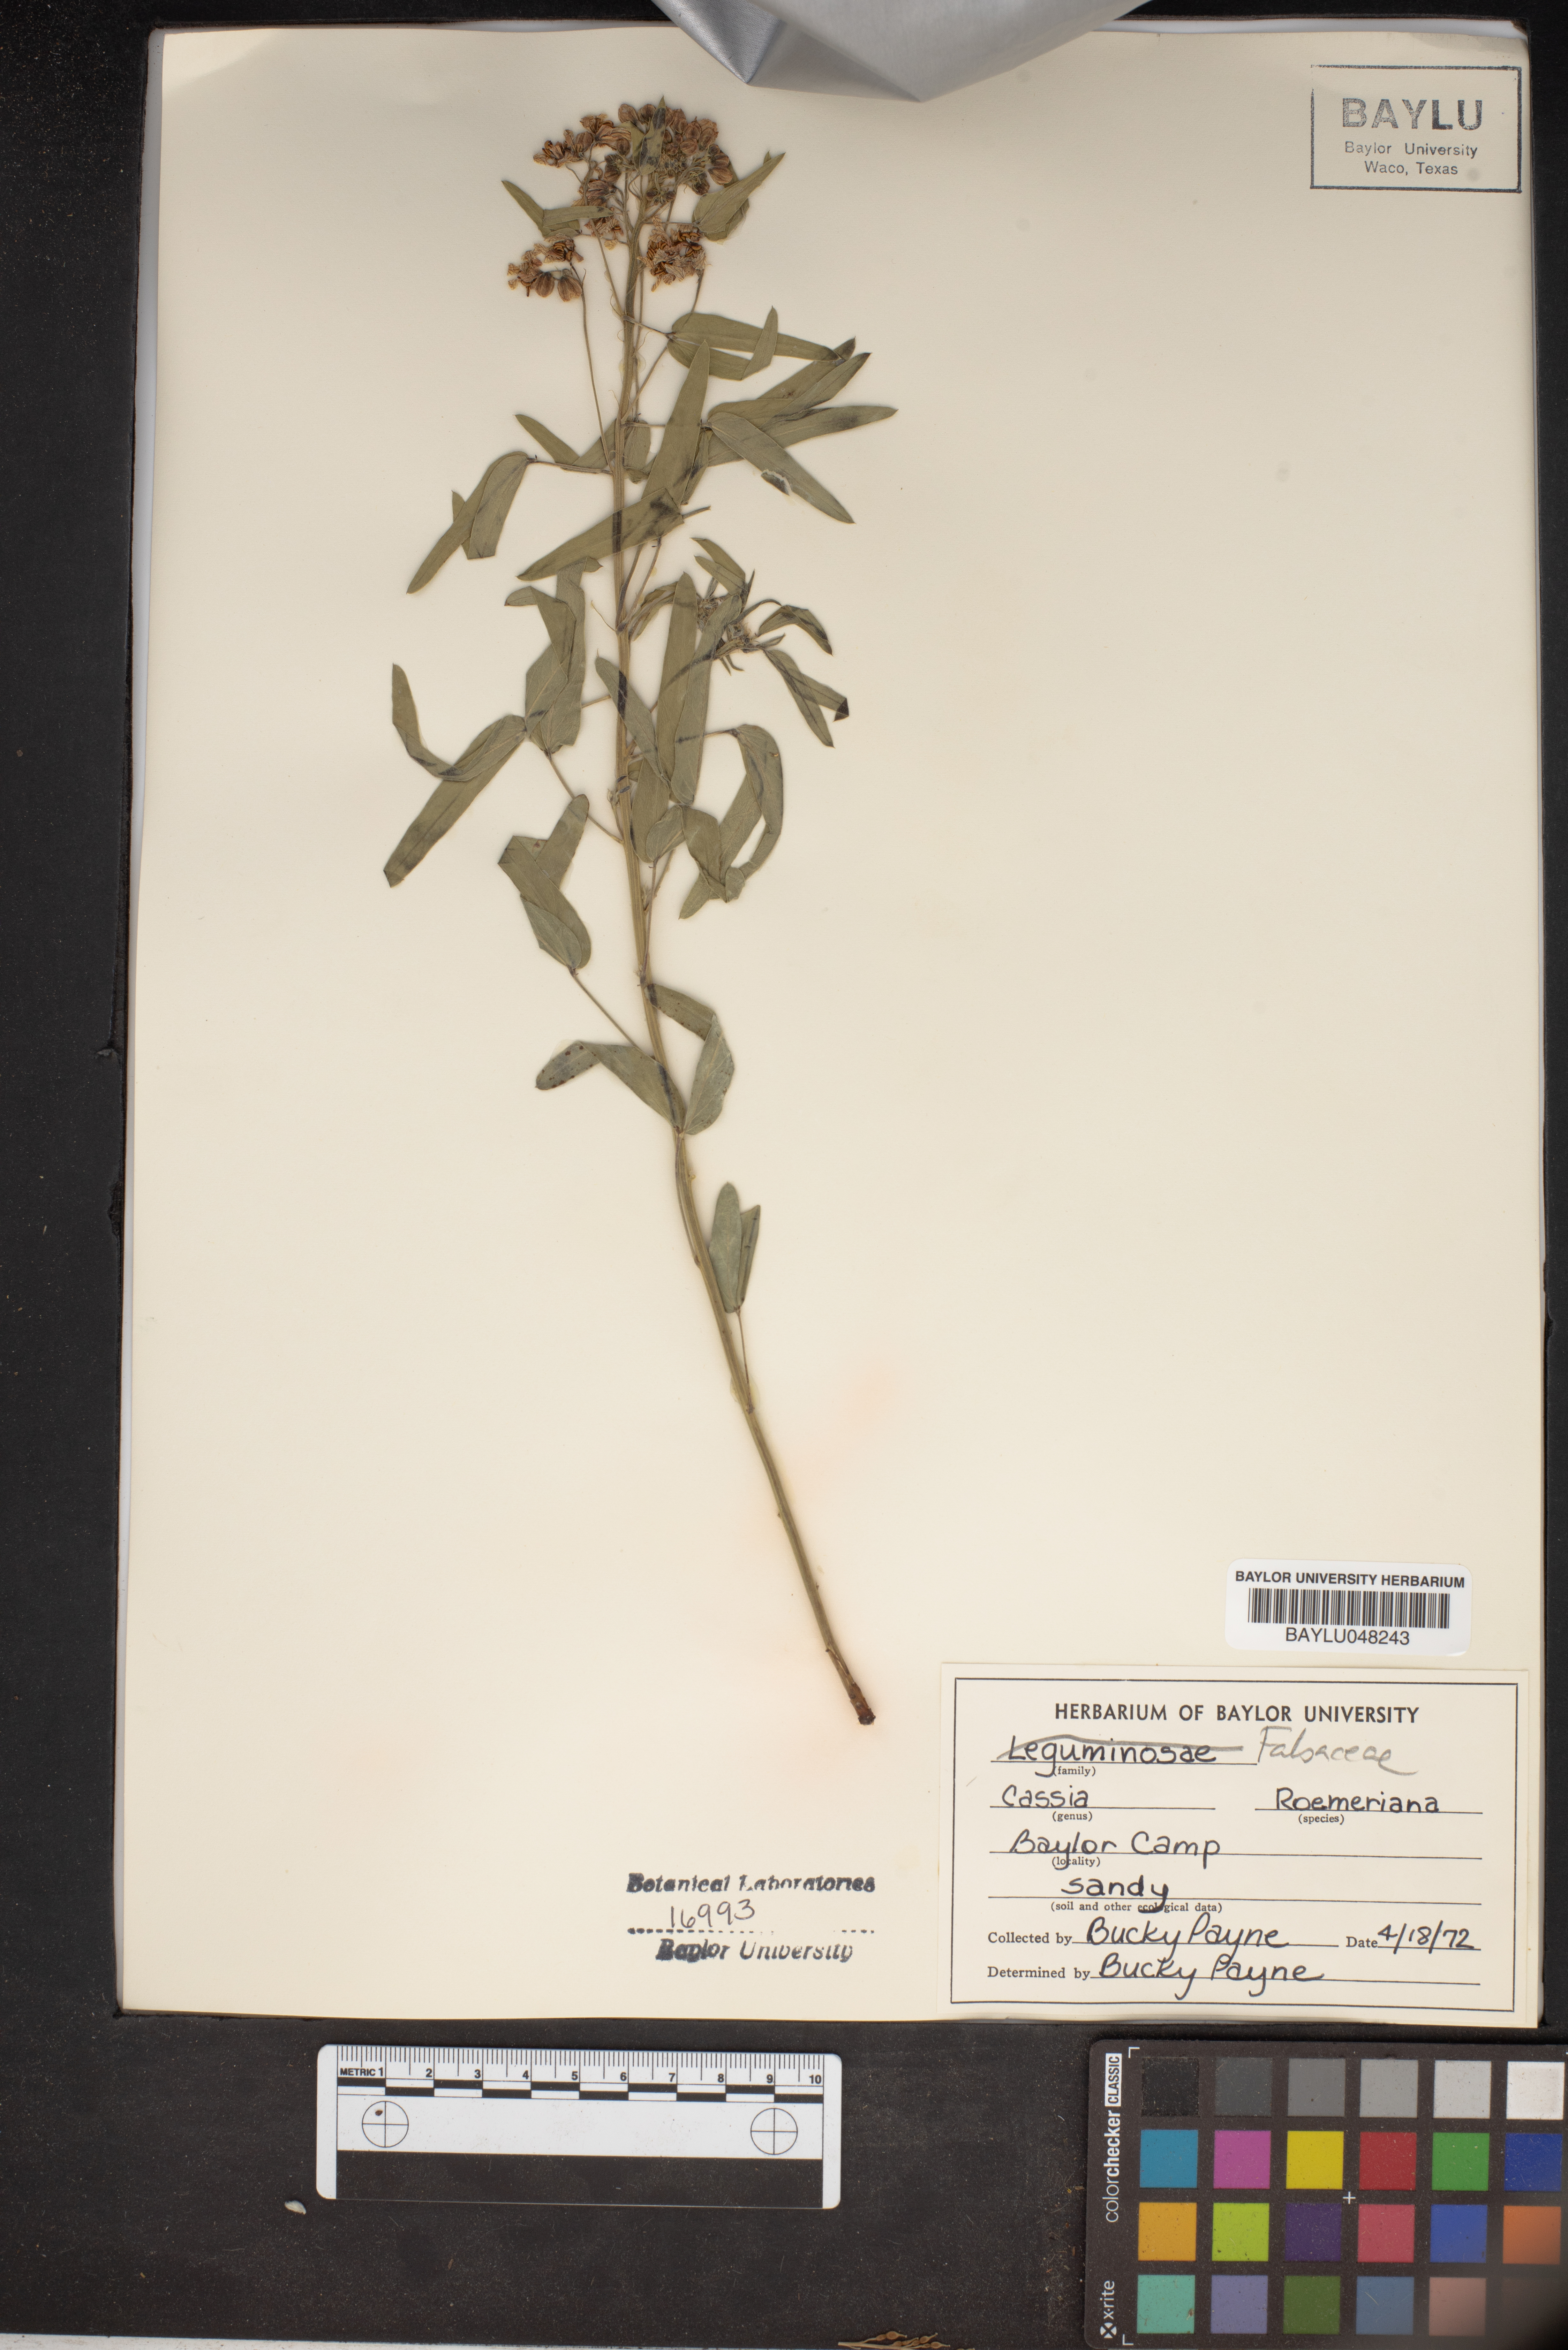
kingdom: Plantae
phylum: Tracheophyta
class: Magnoliopsida
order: Fabales
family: Fabaceae
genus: Senna
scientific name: Senna roemeriana
